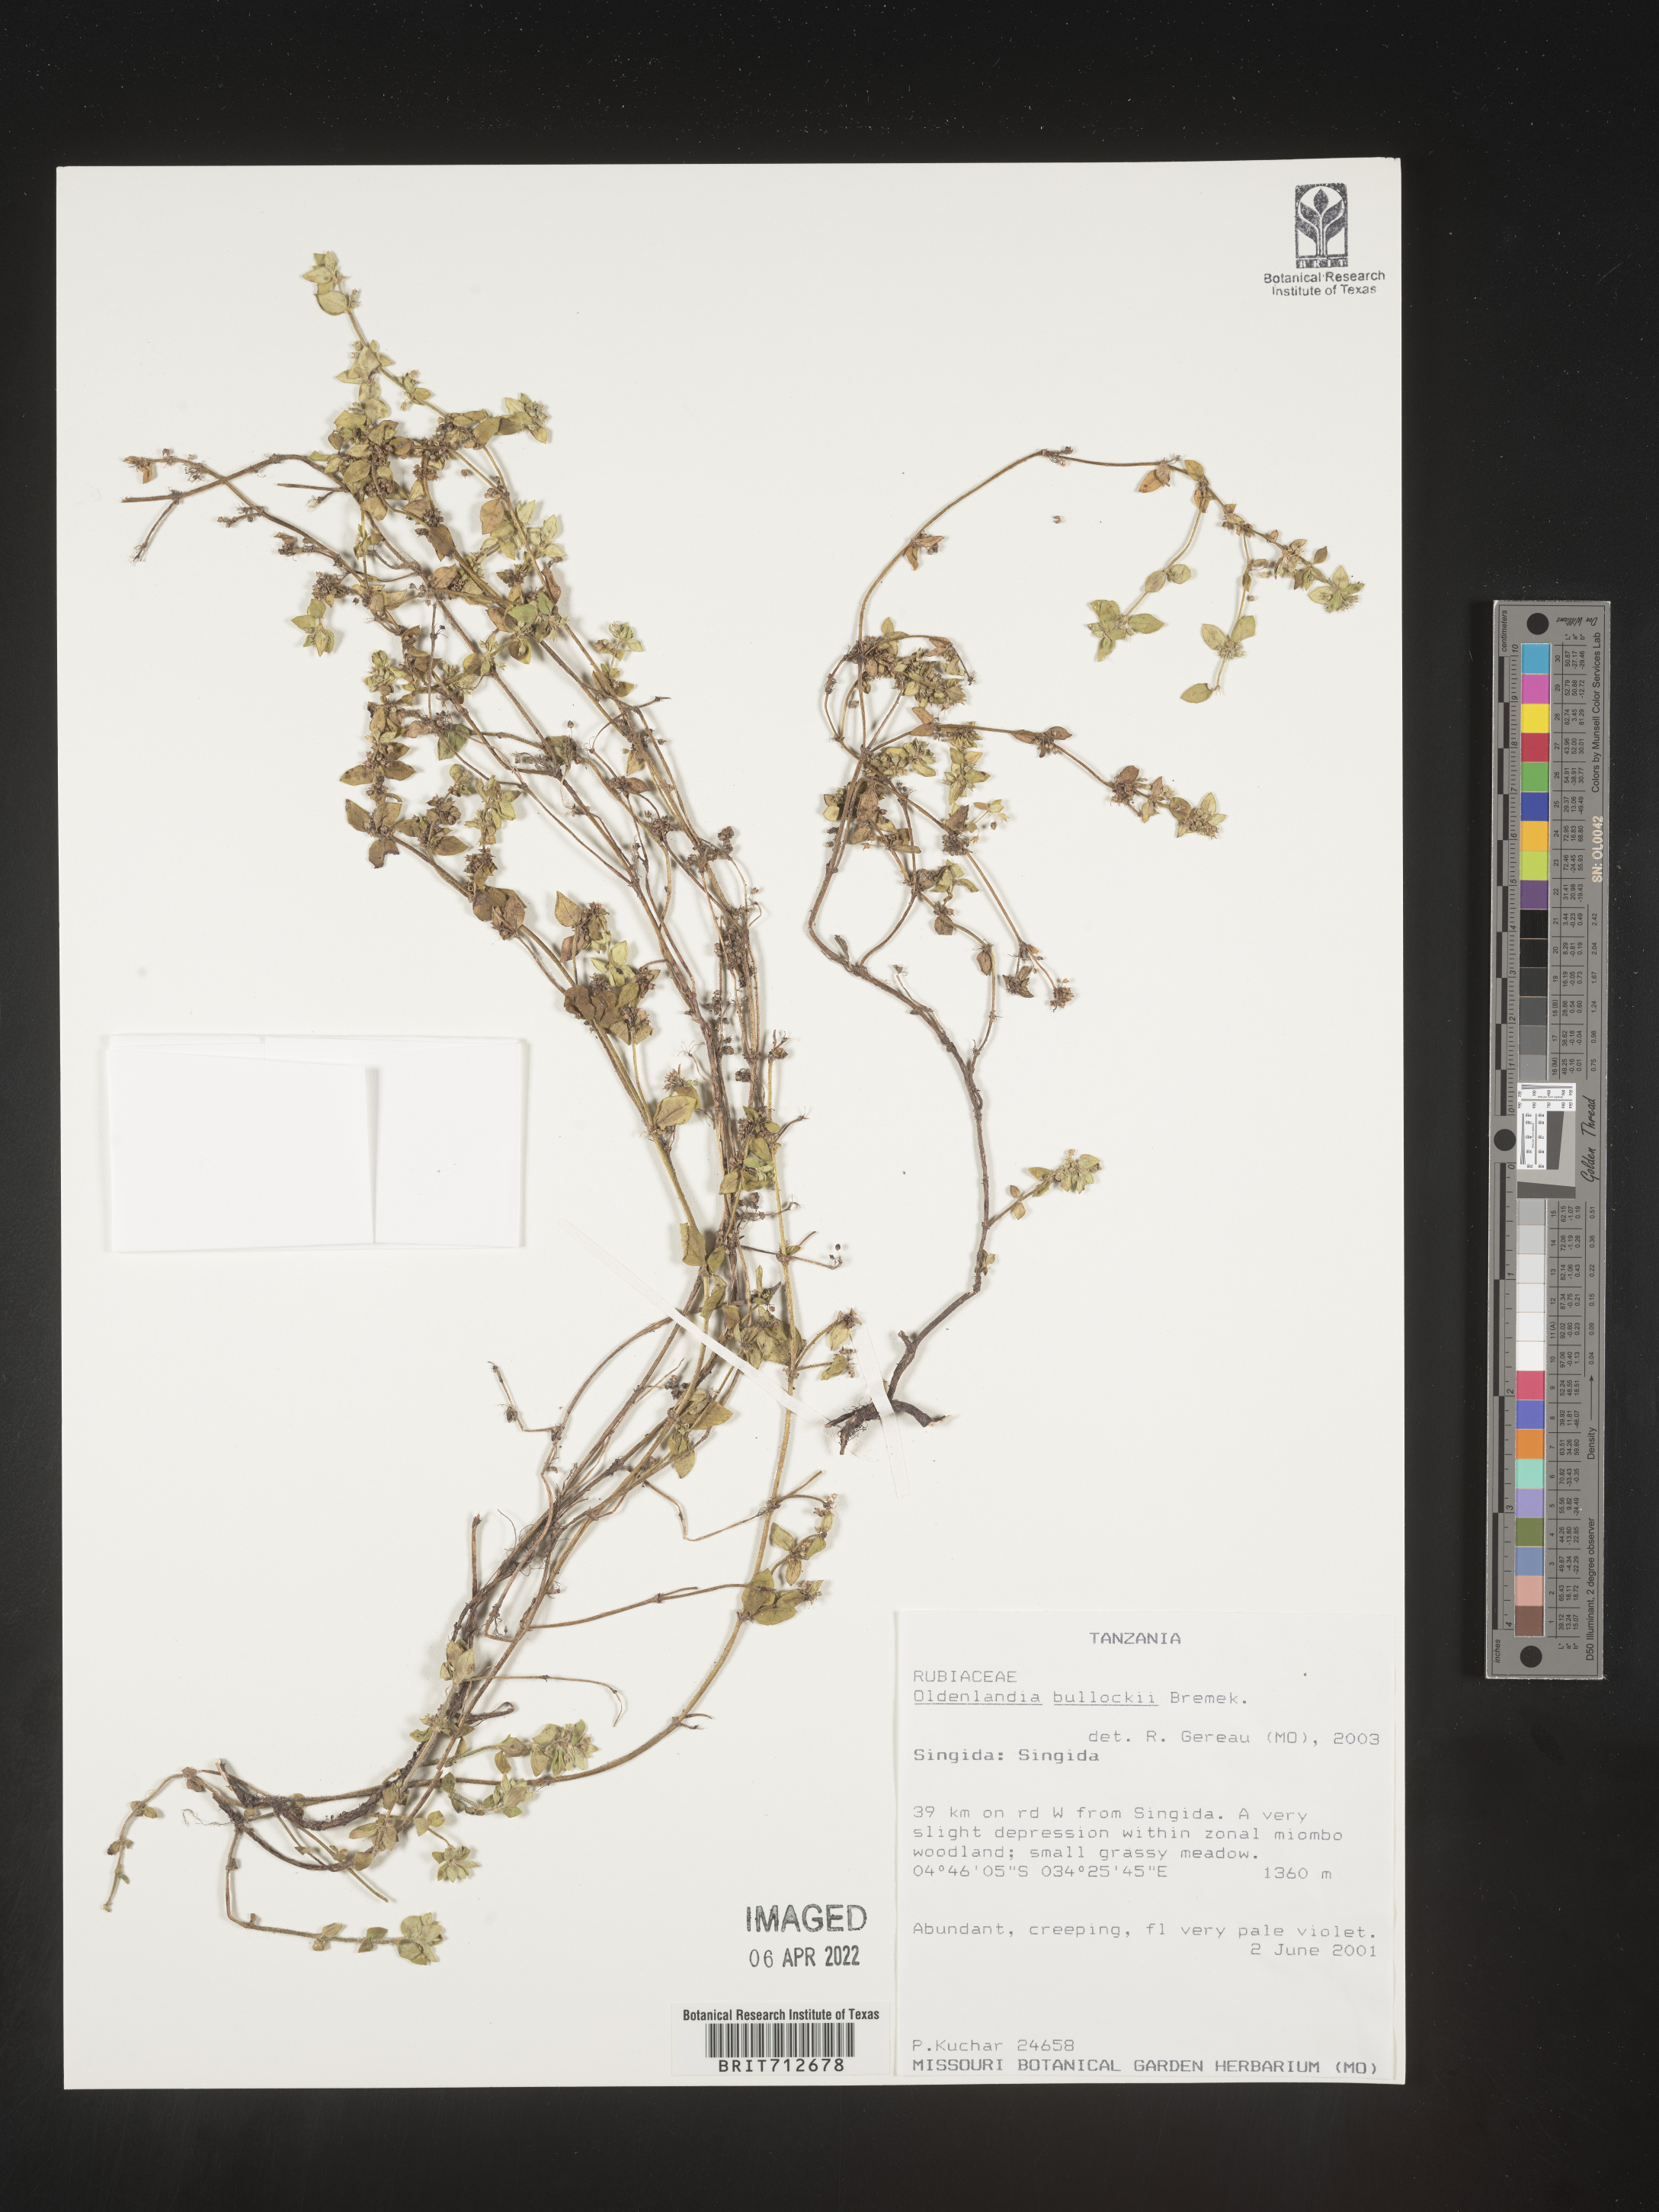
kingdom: Plantae
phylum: Tracheophyta
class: Magnoliopsida
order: Gentianales
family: Rubiaceae
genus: Oldenlandia
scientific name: Oldenlandia
